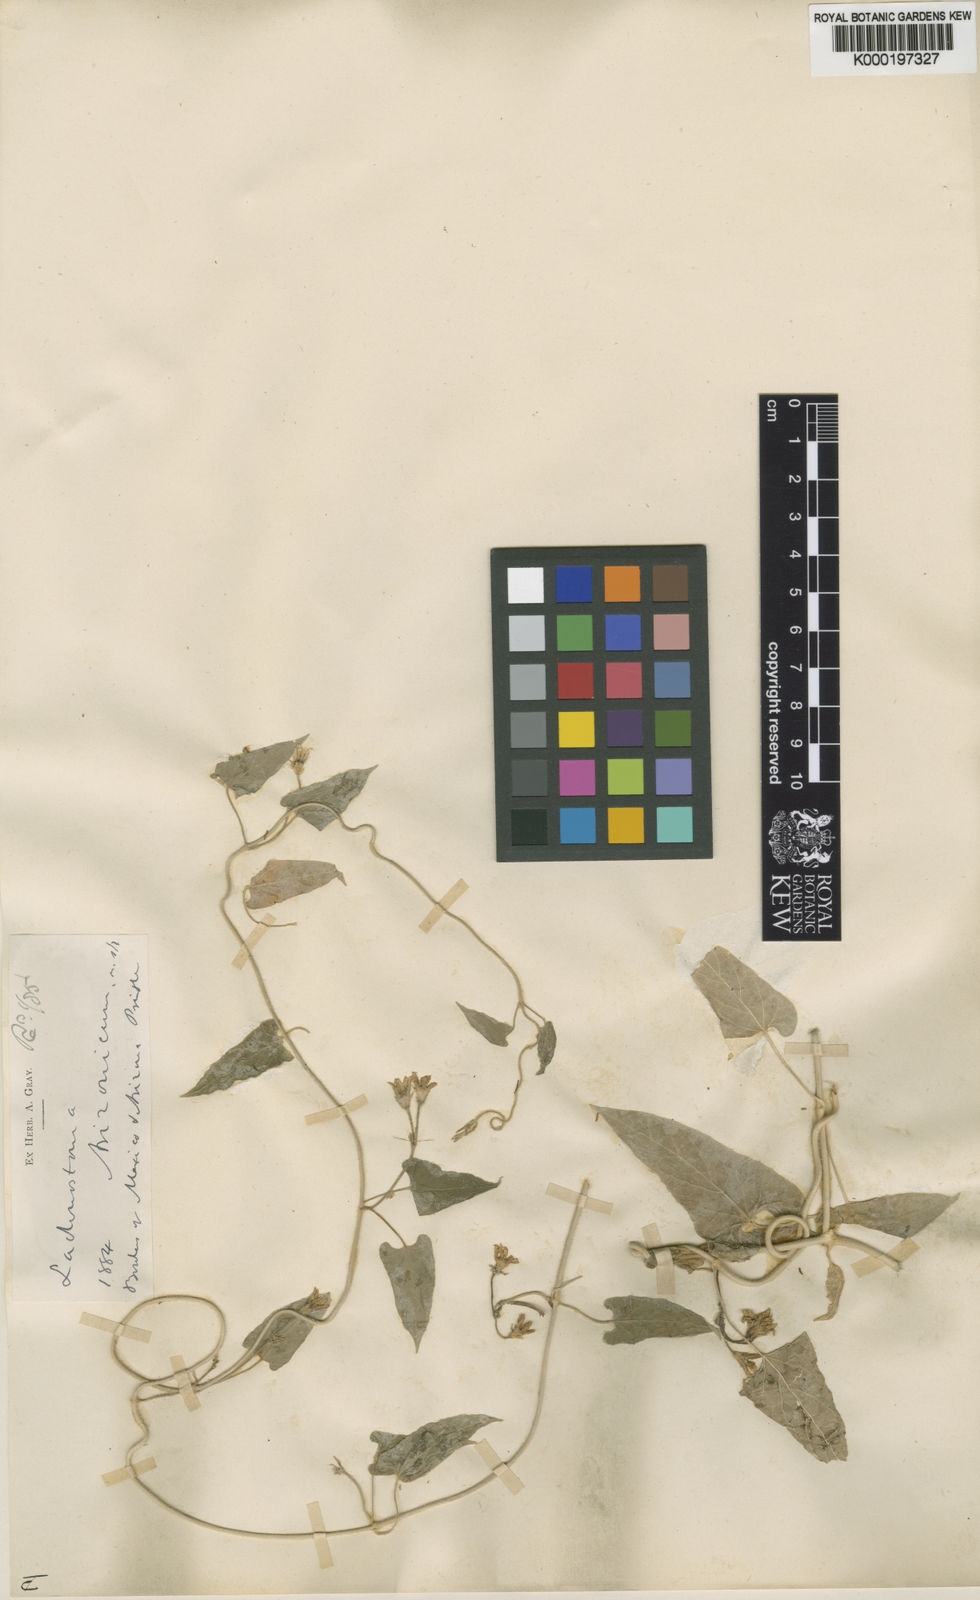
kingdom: Plantae
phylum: Tracheophyta
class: Magnoliopsida
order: Gentianales
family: Apocynaceae
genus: Gonolobus
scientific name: Gonolobus arizonicus
